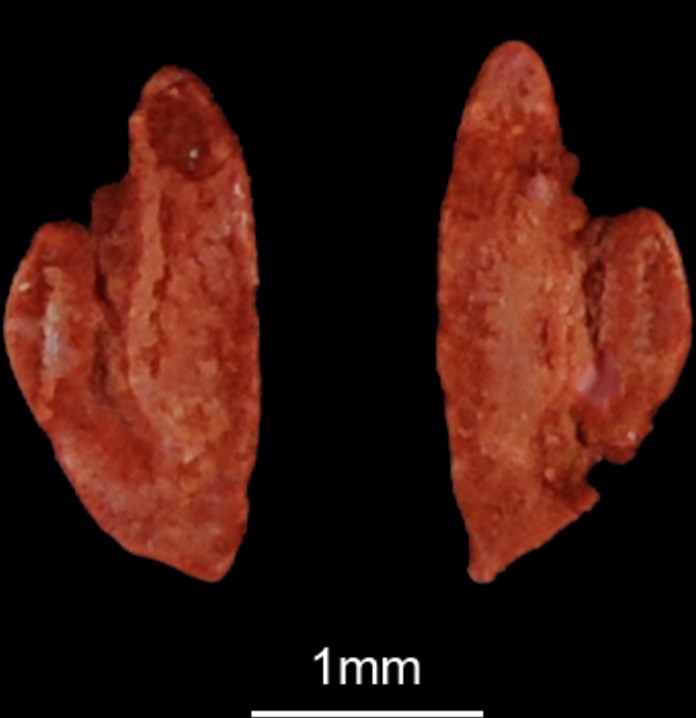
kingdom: Animalia
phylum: Chordata
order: Perciformes
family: Clinidae
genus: Clinus
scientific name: Clinus superciliosus
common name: Super klipfish
